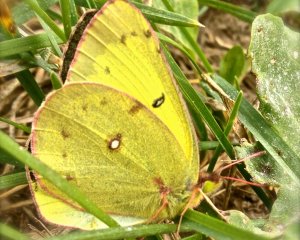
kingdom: Animalia
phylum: Arthropoda
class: Insecta
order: Lepidoptera
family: Pieridae
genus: Colias
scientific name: Colias interior
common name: Pink-edged Sulphur
